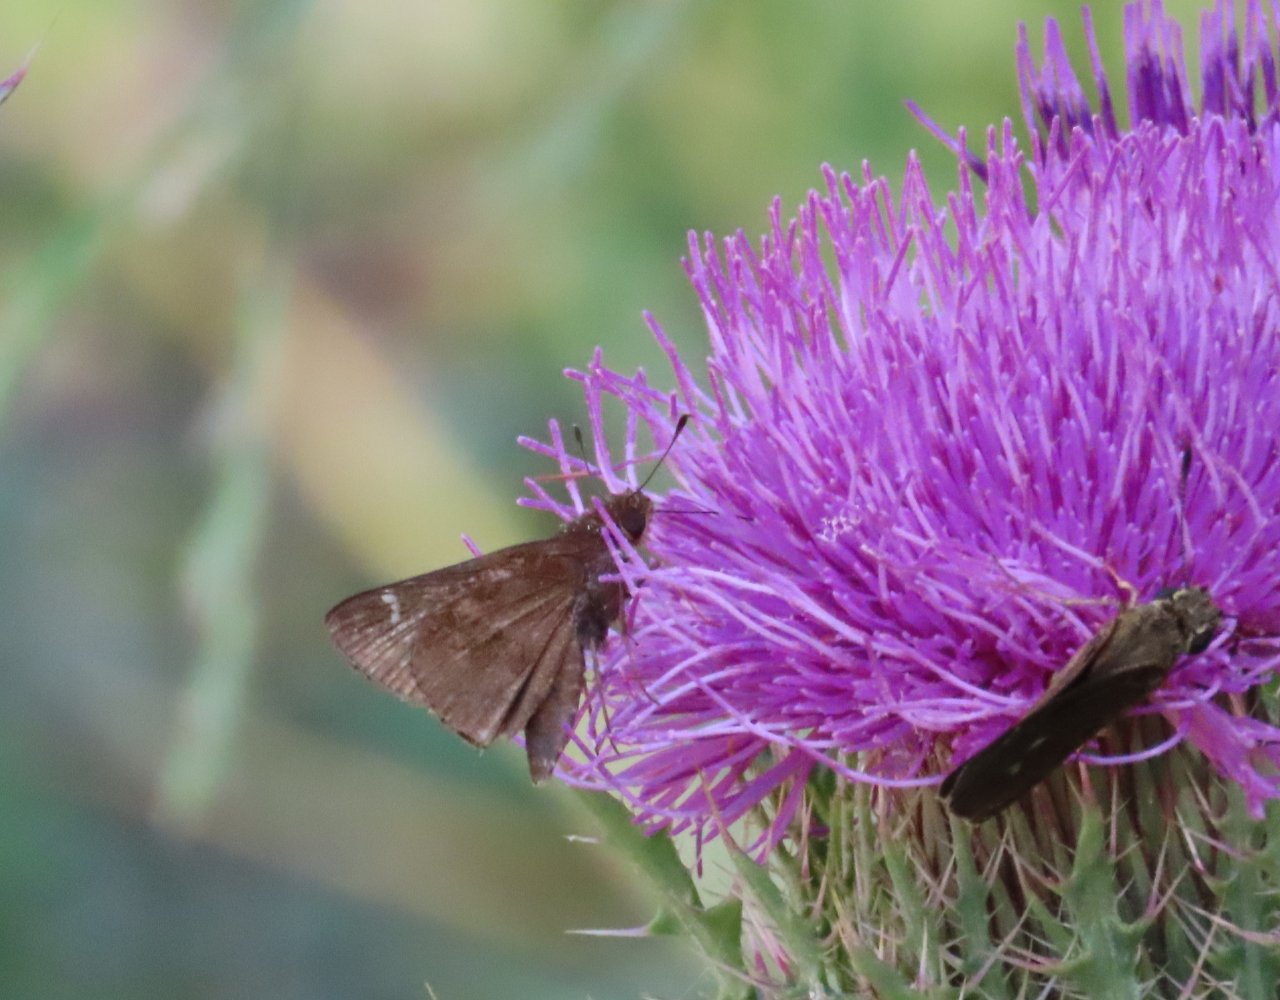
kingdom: Animalia
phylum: Arthropoda
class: Insecta
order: Lepidoptera
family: Hesperiidae
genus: Lerema
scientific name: Lerema accius
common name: Clouded Skipper
